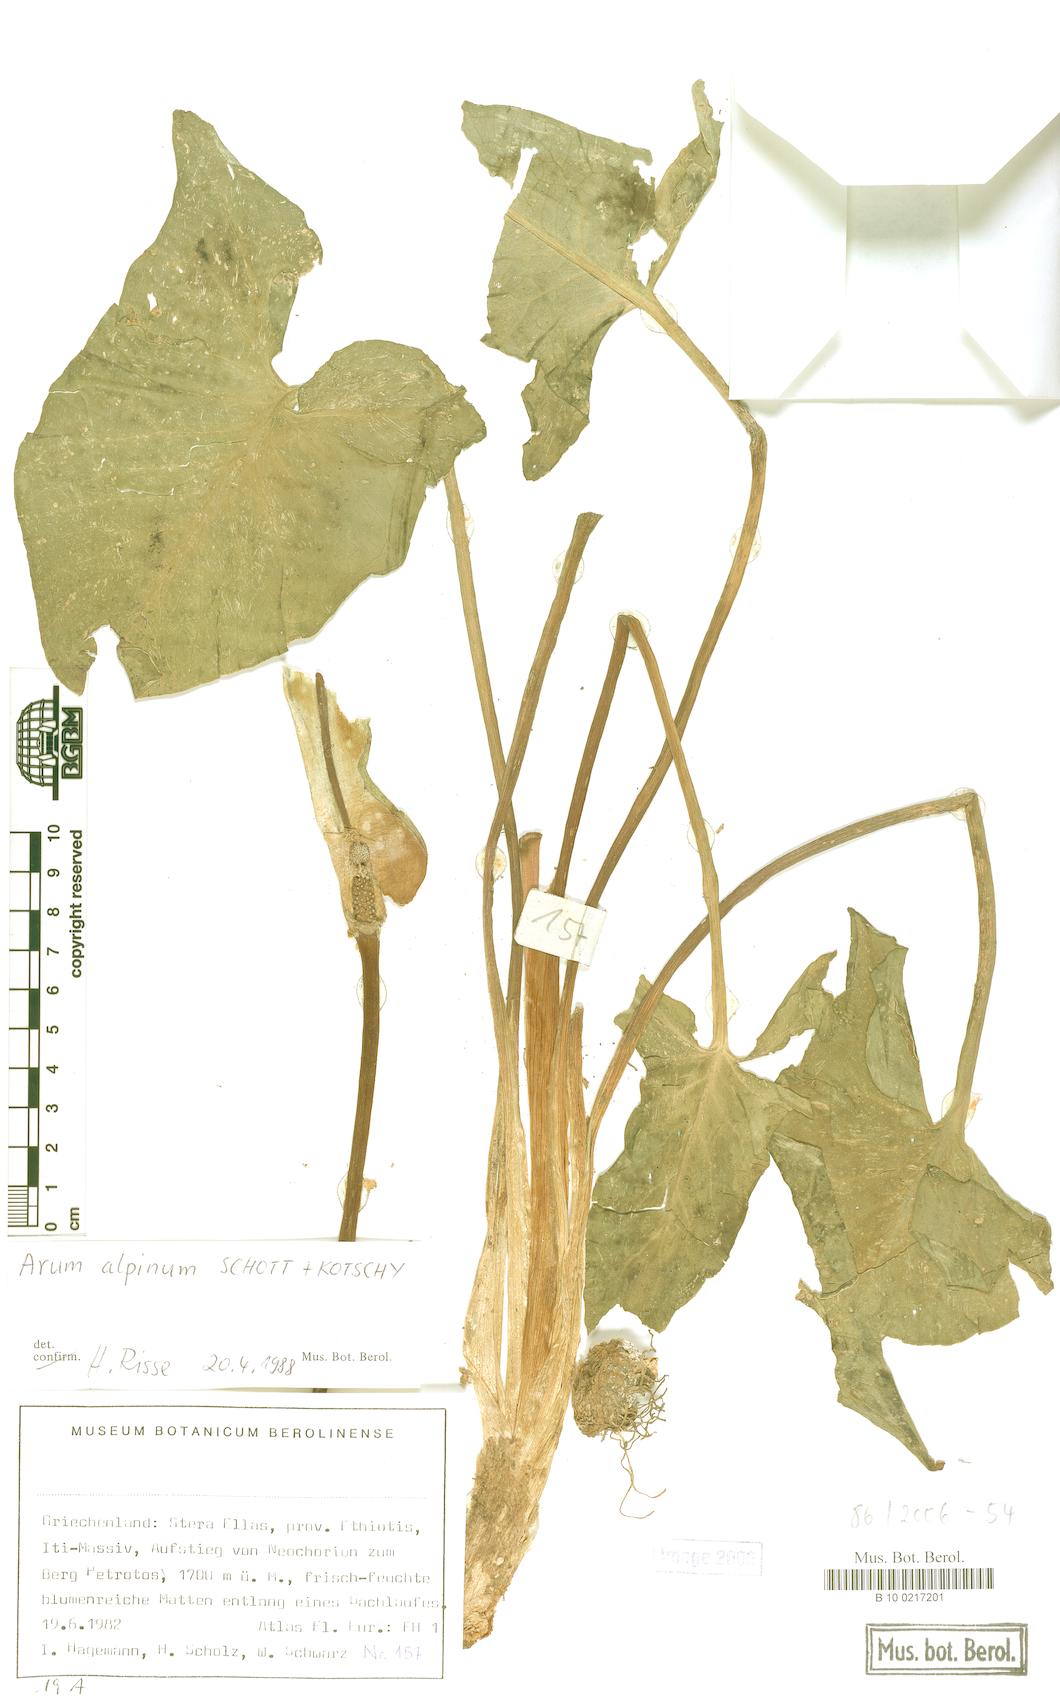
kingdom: Plantae
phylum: Tracheophyta
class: Liliopsida
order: Alismatales
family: Araceae
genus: Arum
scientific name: Arum cylindraceum
